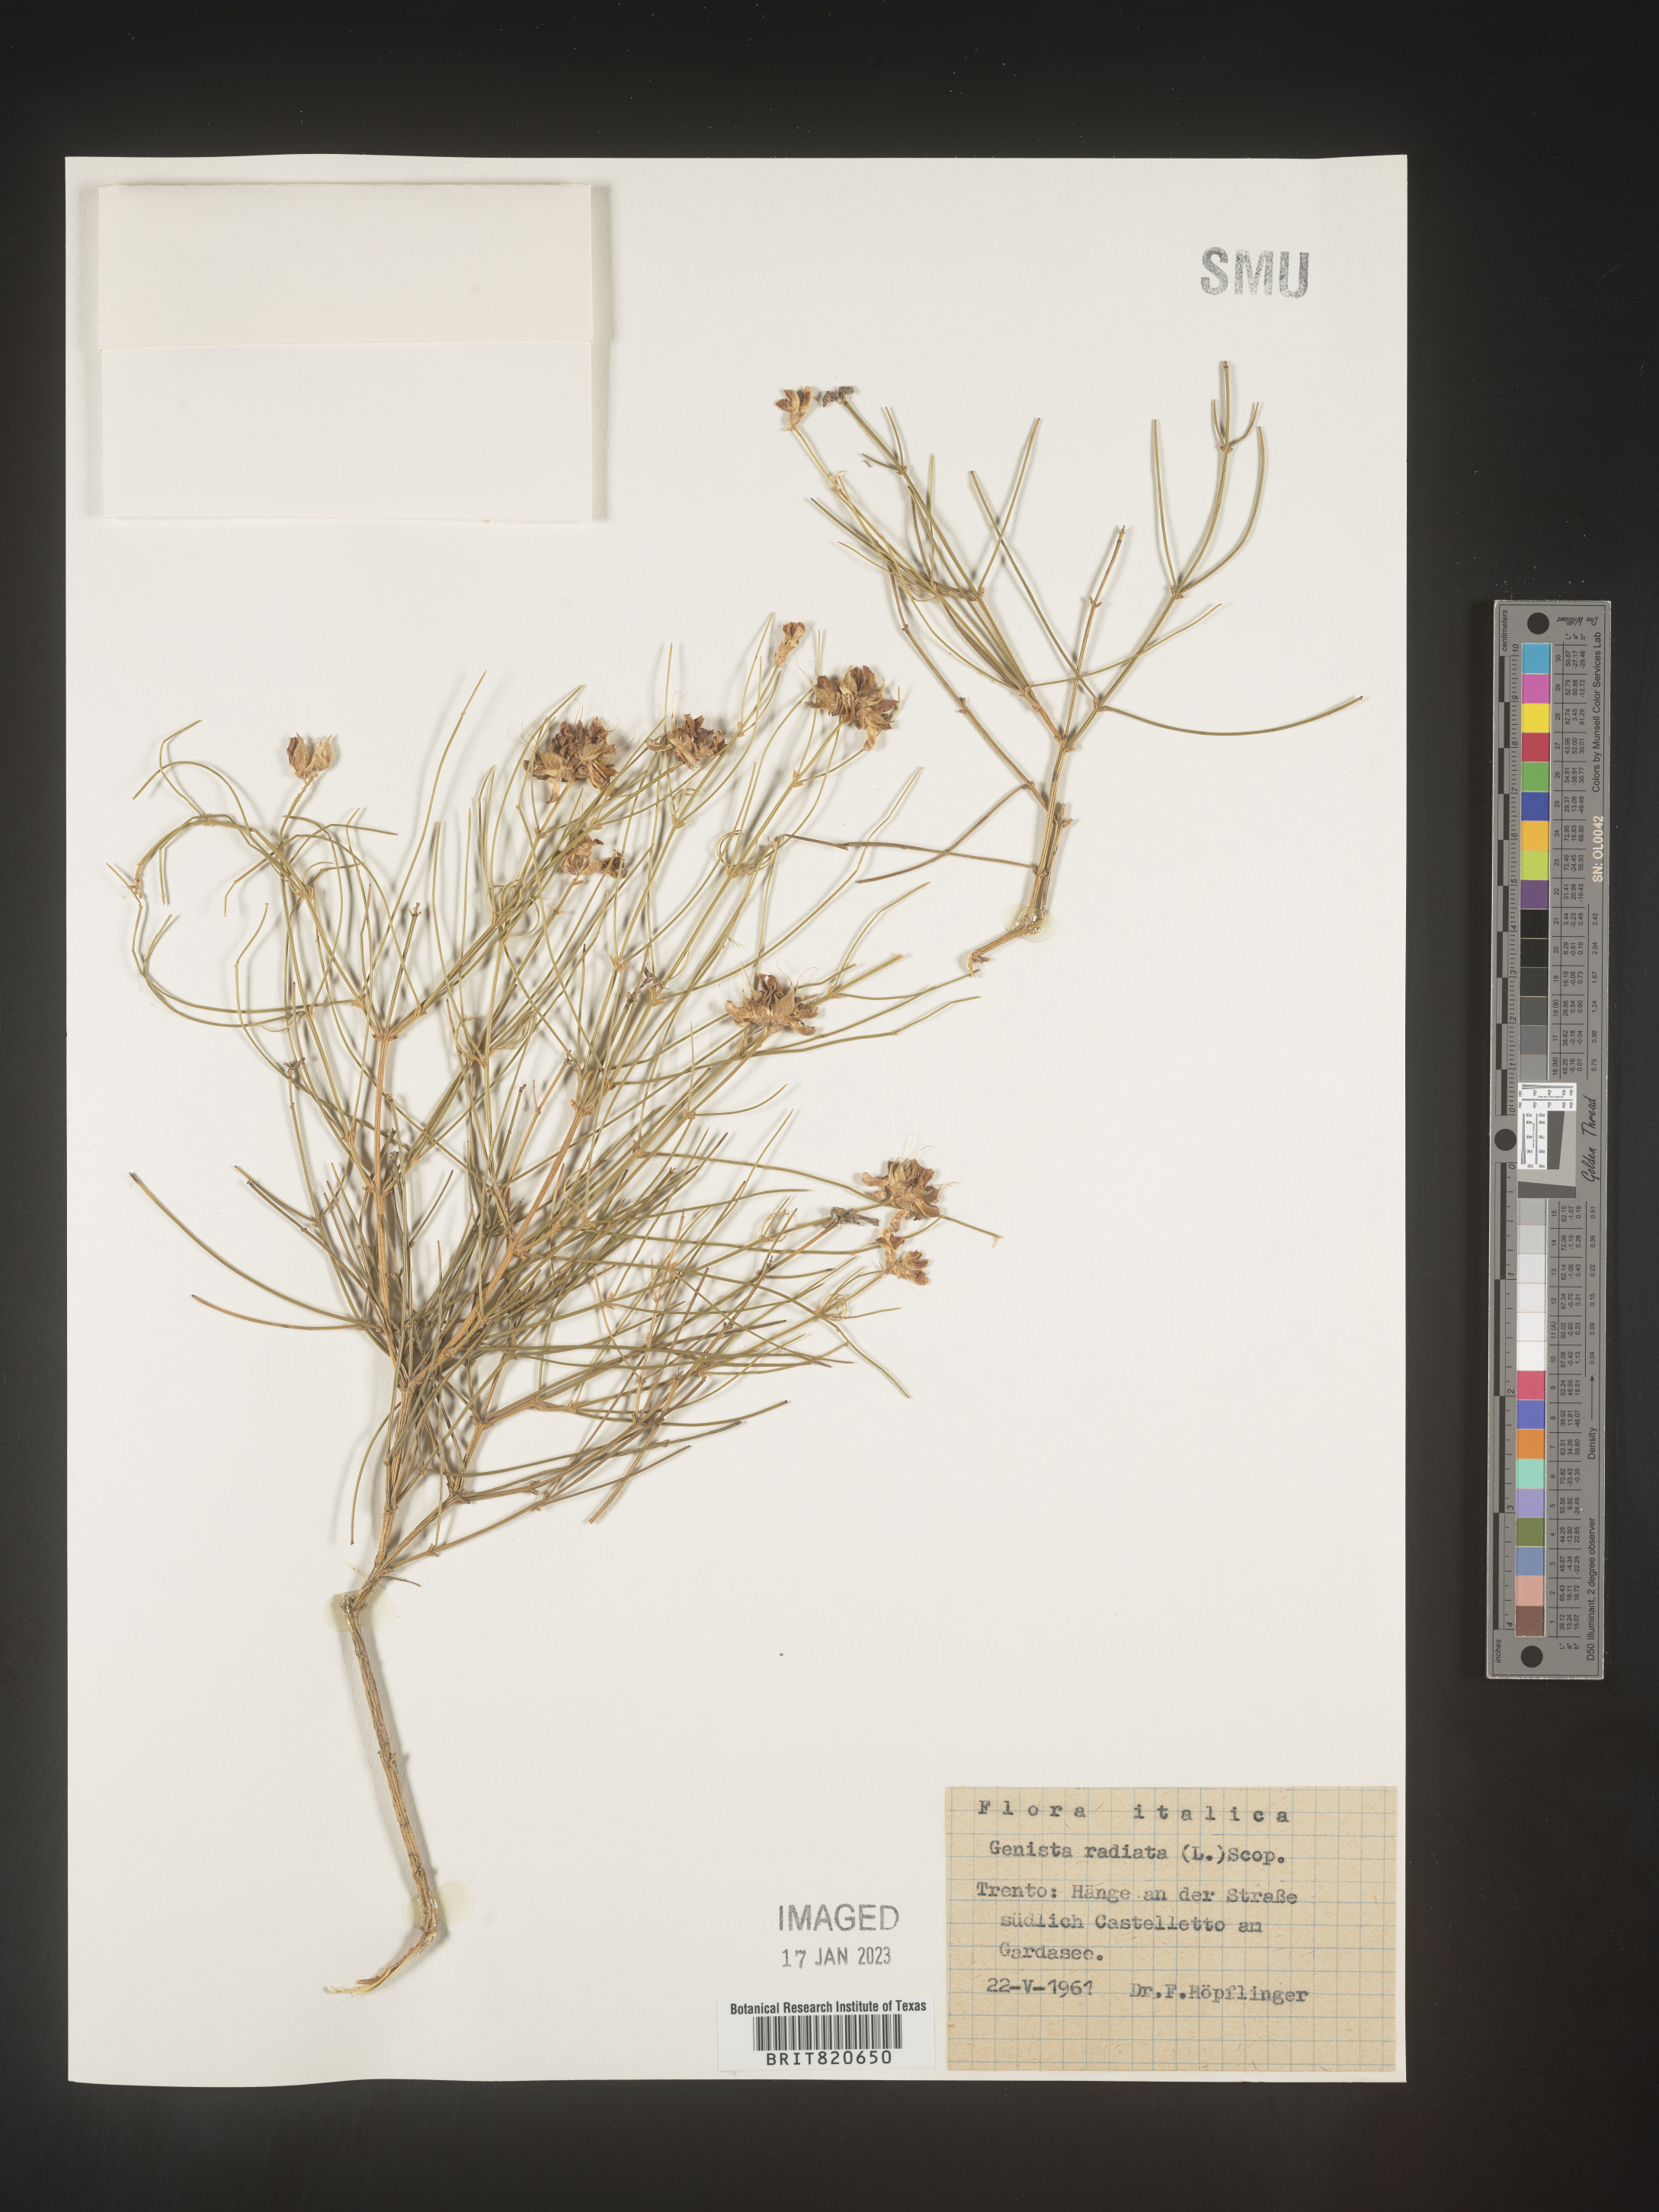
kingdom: Plantae
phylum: Tracheophyta
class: Magnoliopsida
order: Fabales
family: Fabaceae
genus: Genista
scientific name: Genista
